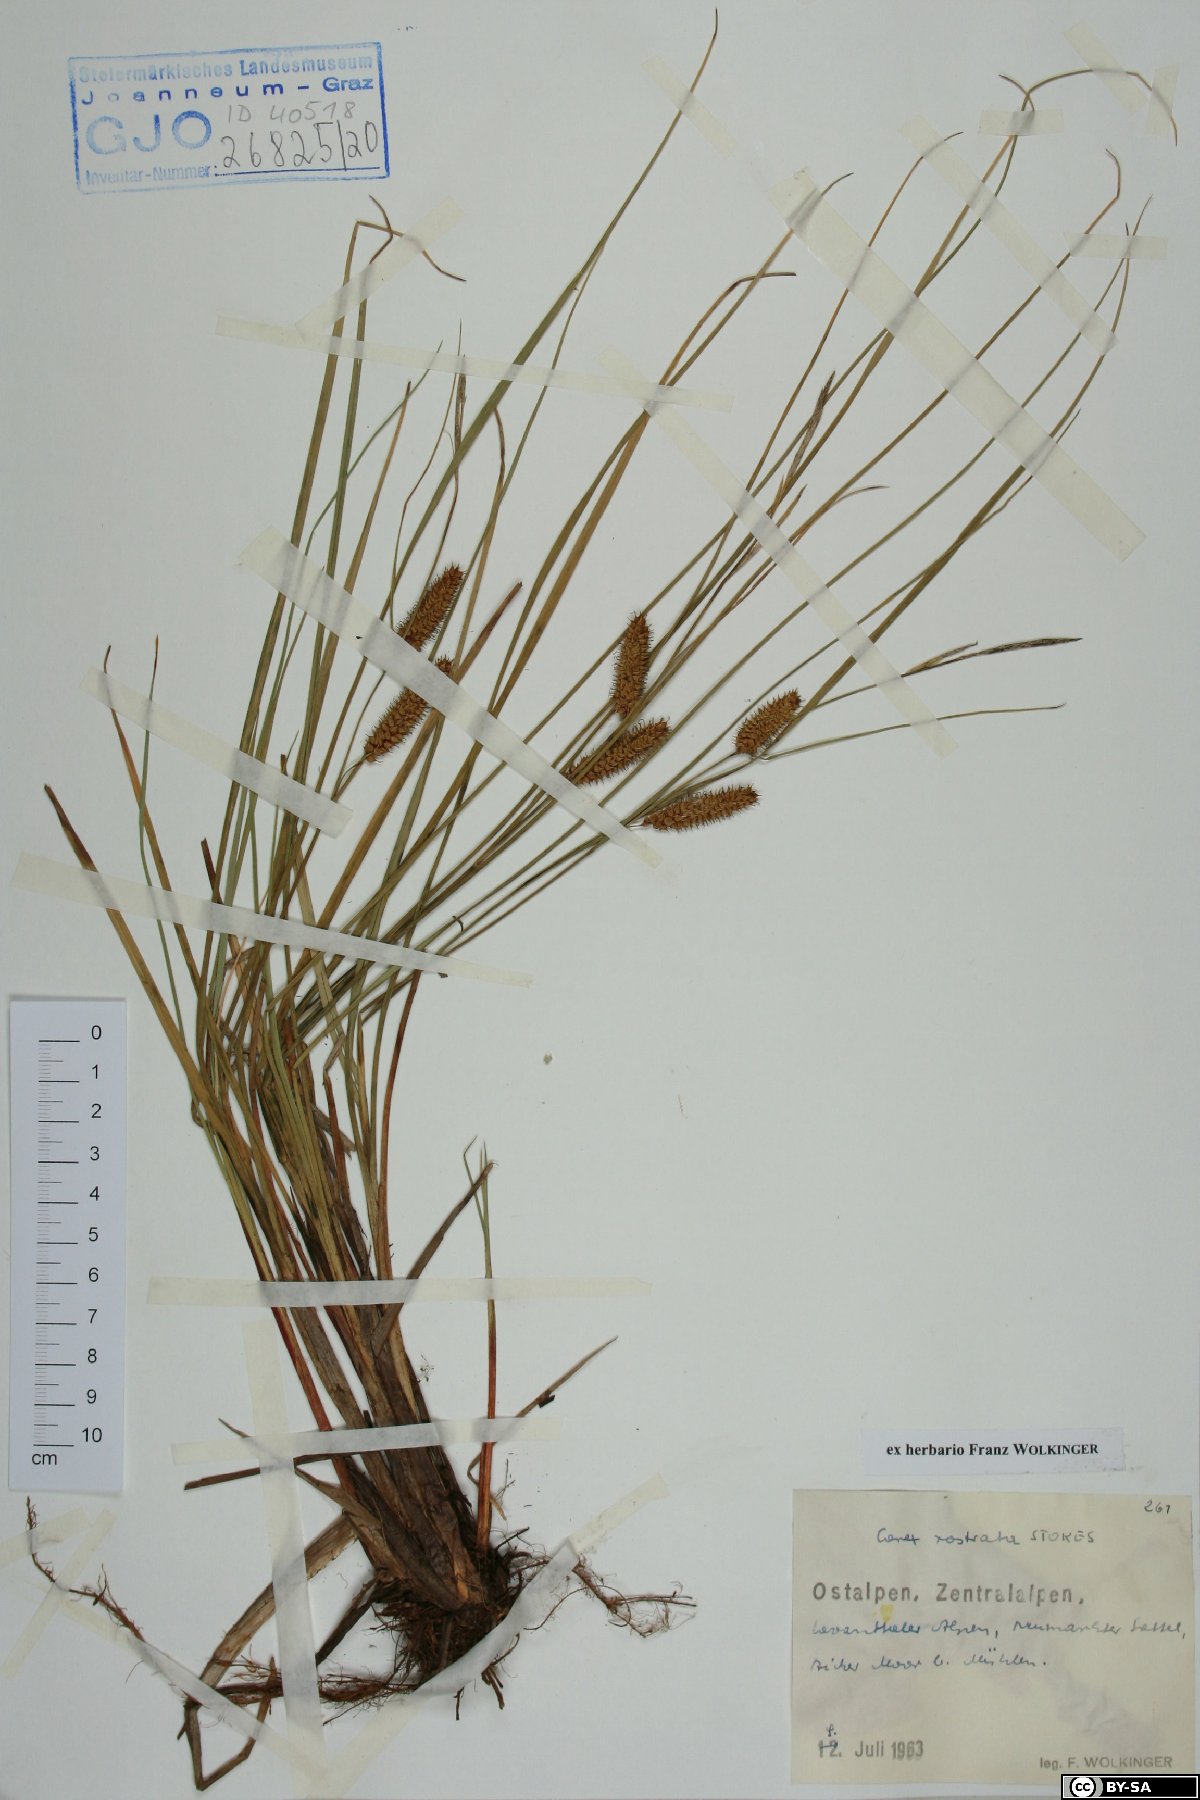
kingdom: Plantae
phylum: Tracheophyta
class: Liliopsida
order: Poales
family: Cyperaceae
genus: Carex
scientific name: Carex rostrata
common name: Bottle sedge
